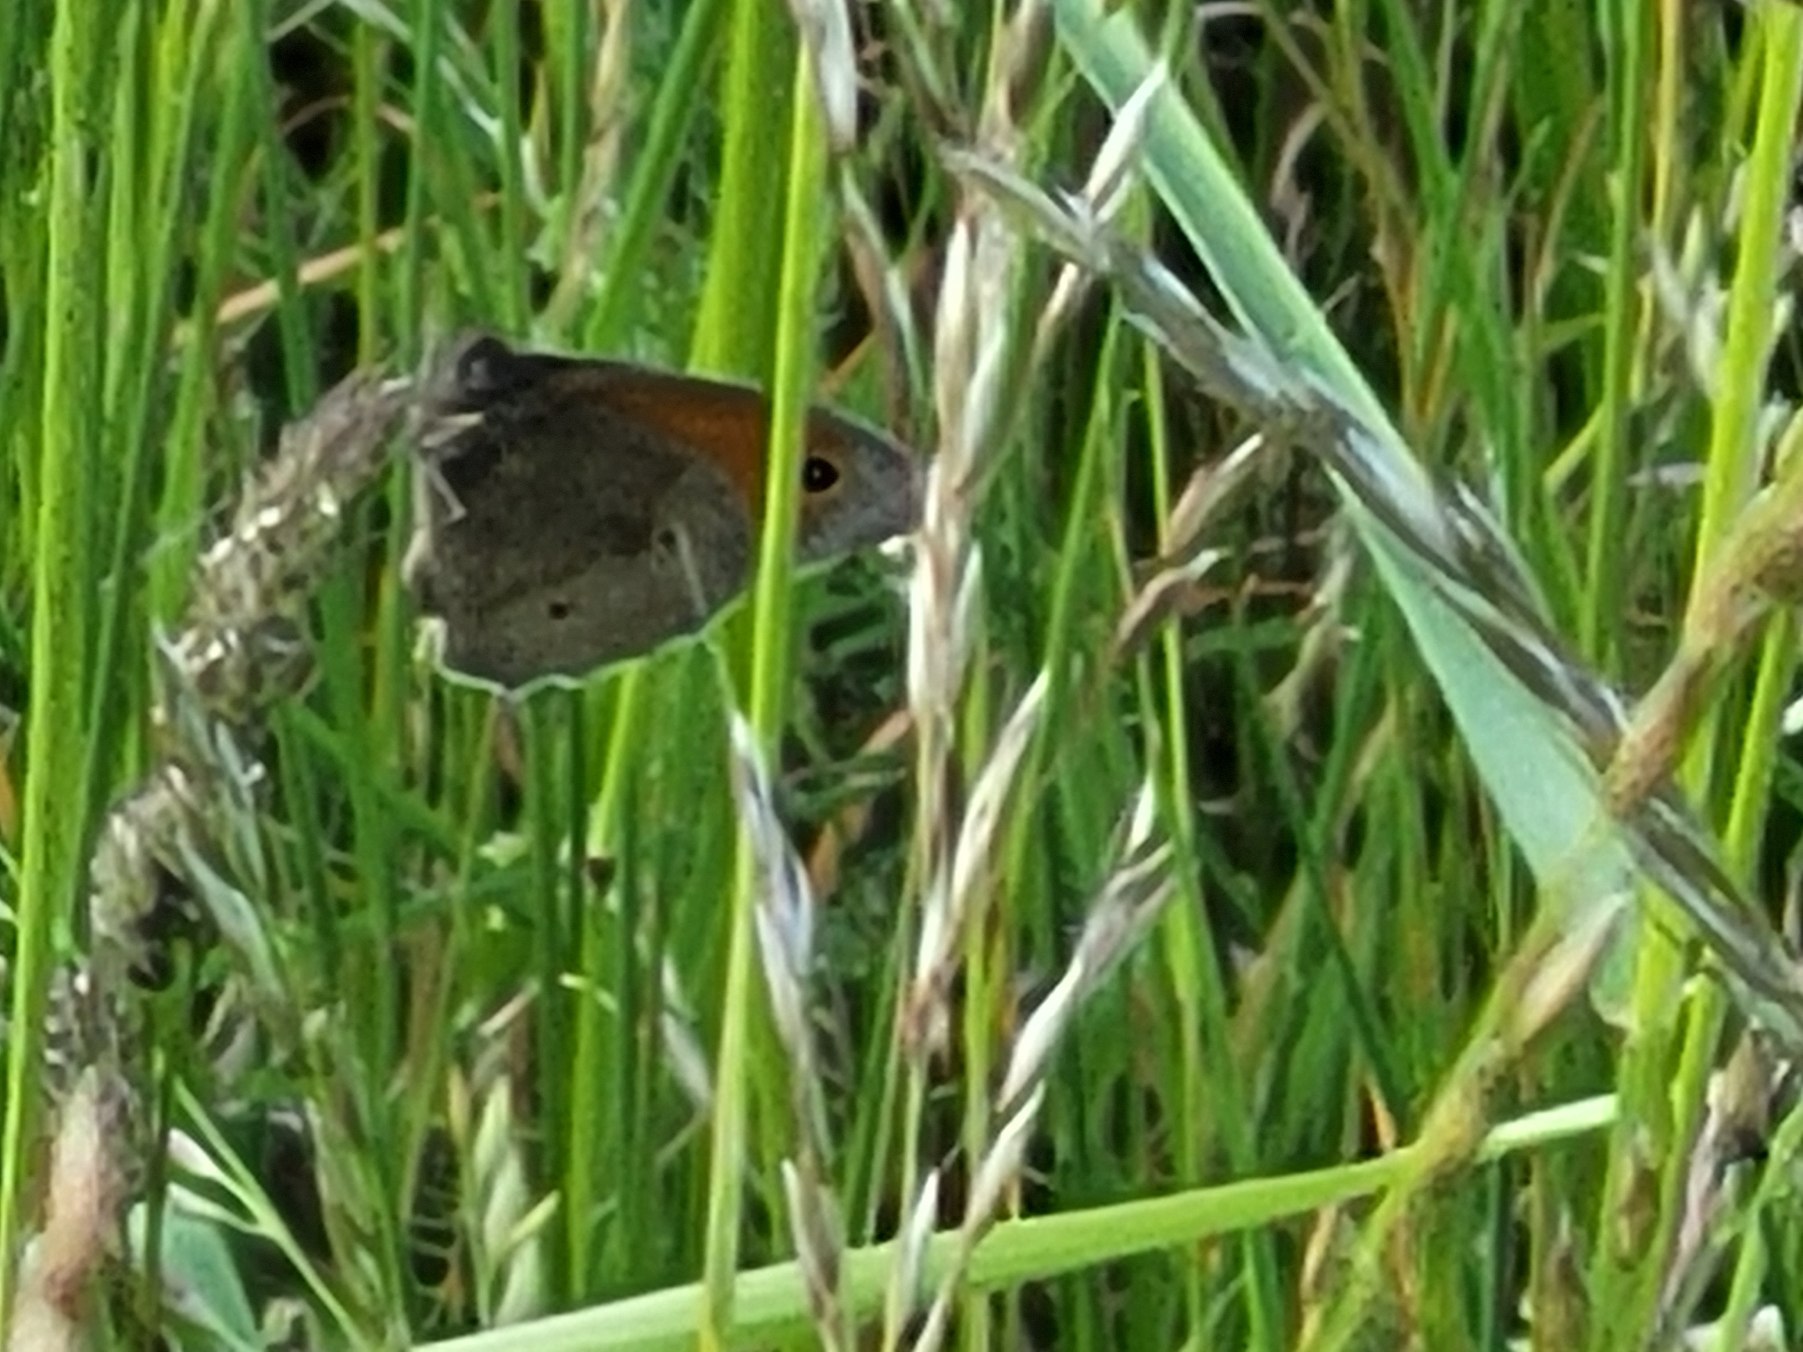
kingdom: Animalia
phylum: Arthropoda
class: Insecta
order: Lepidoptera
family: Nymphalidae
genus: Maniola
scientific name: Maniola jurtina
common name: Græsrandøje
